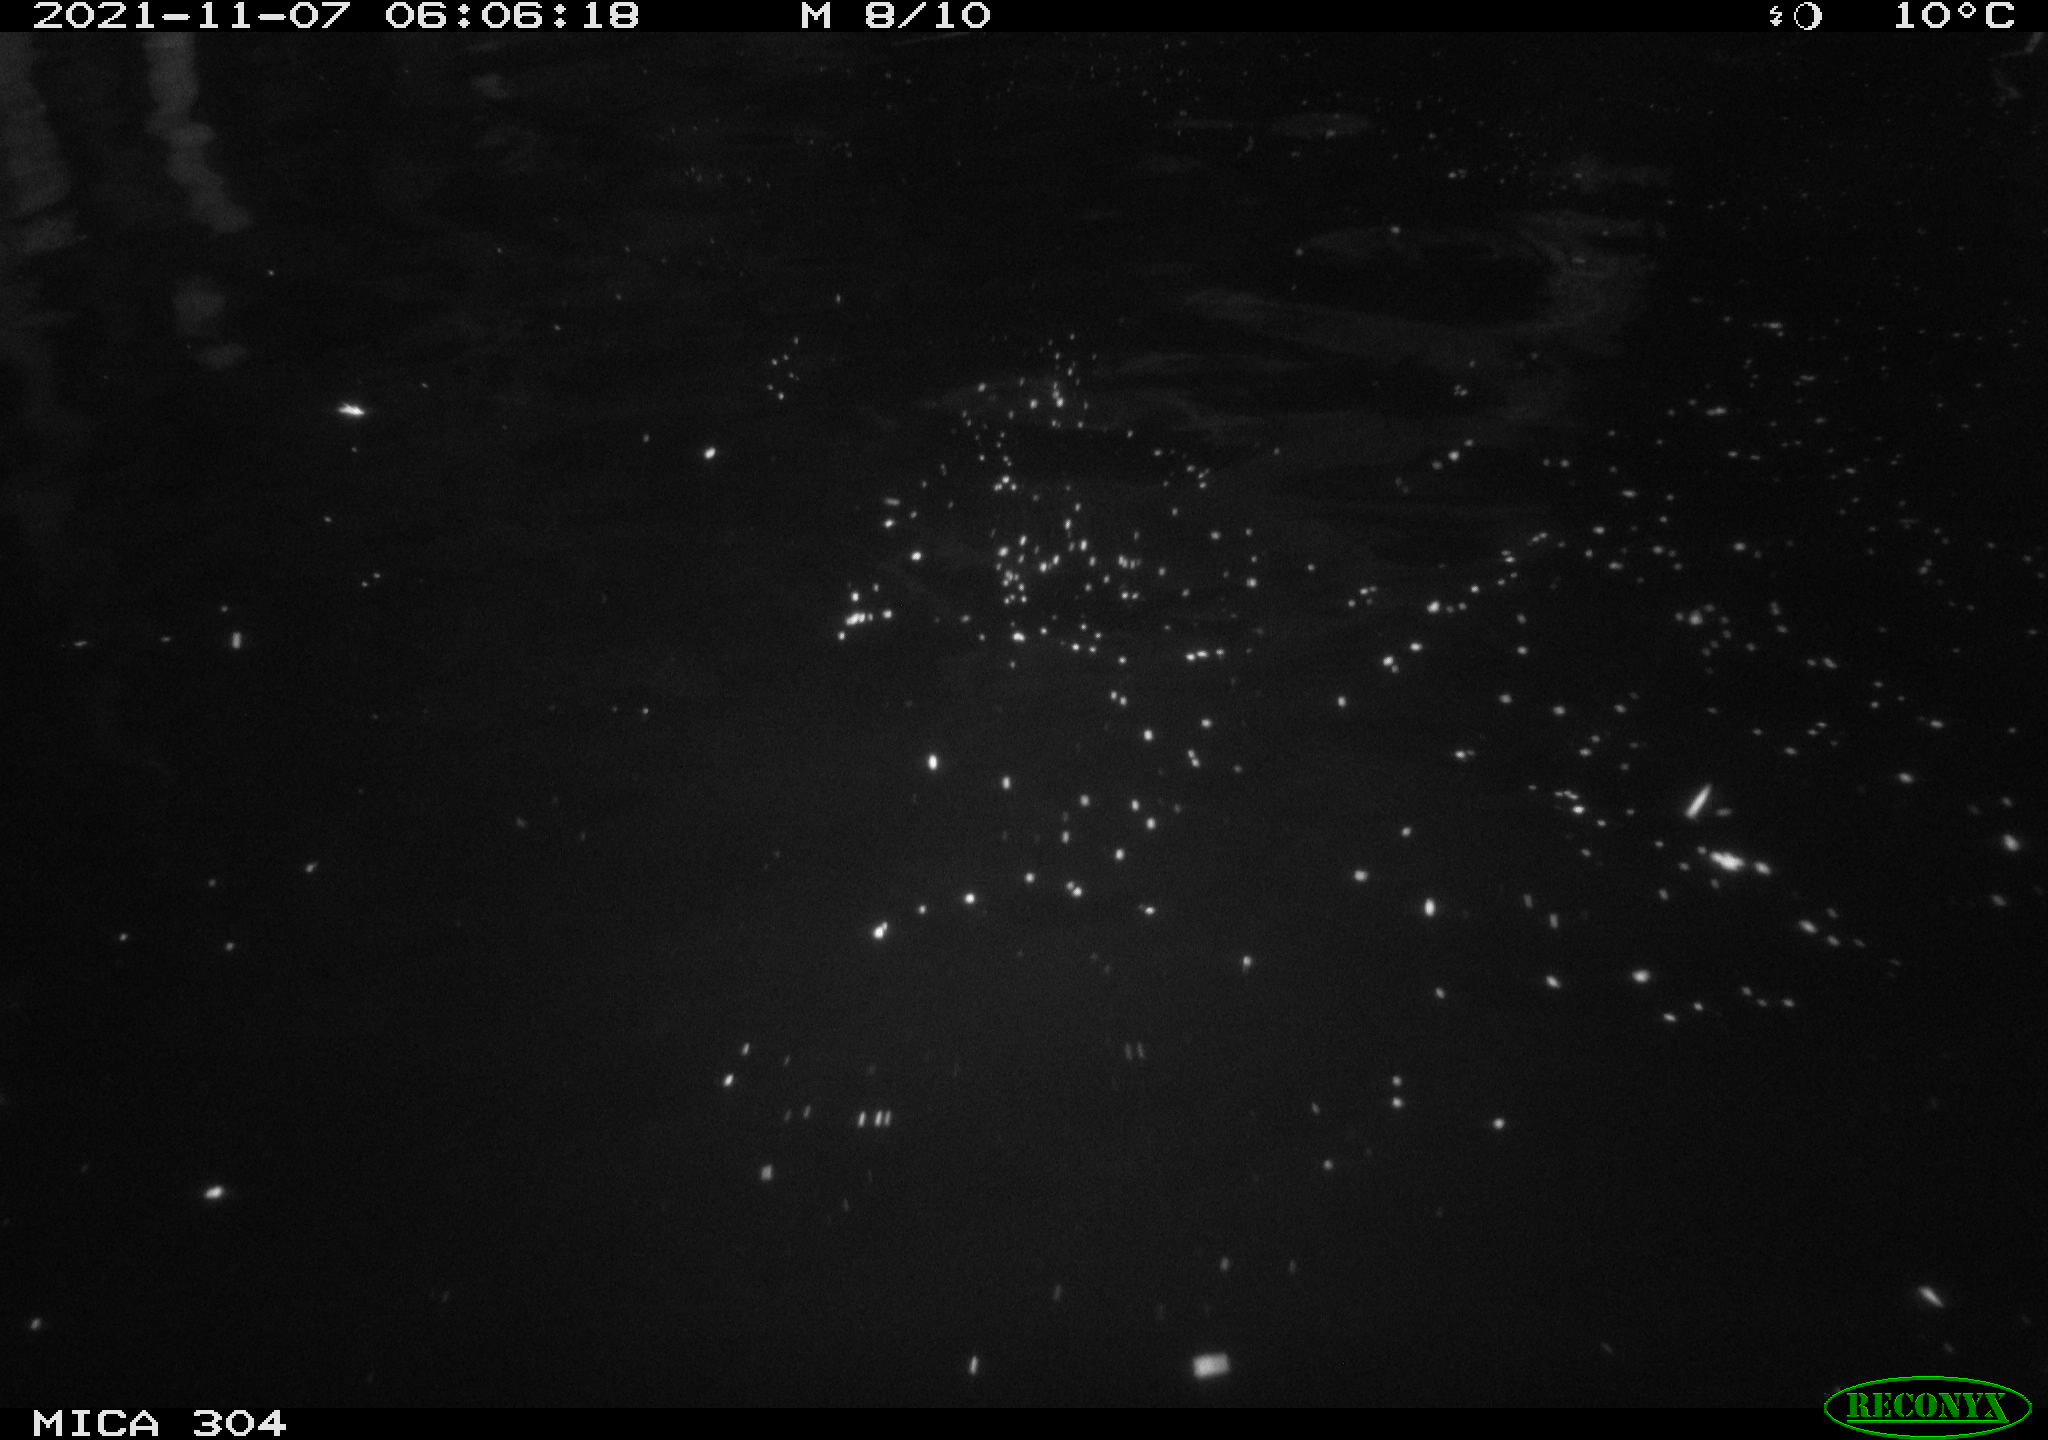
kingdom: Animalia
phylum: Chordata
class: Mammalia
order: Rodentia
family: Cricetidae
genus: Ondatra
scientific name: Ondatra zibethicus
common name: Muskrat
